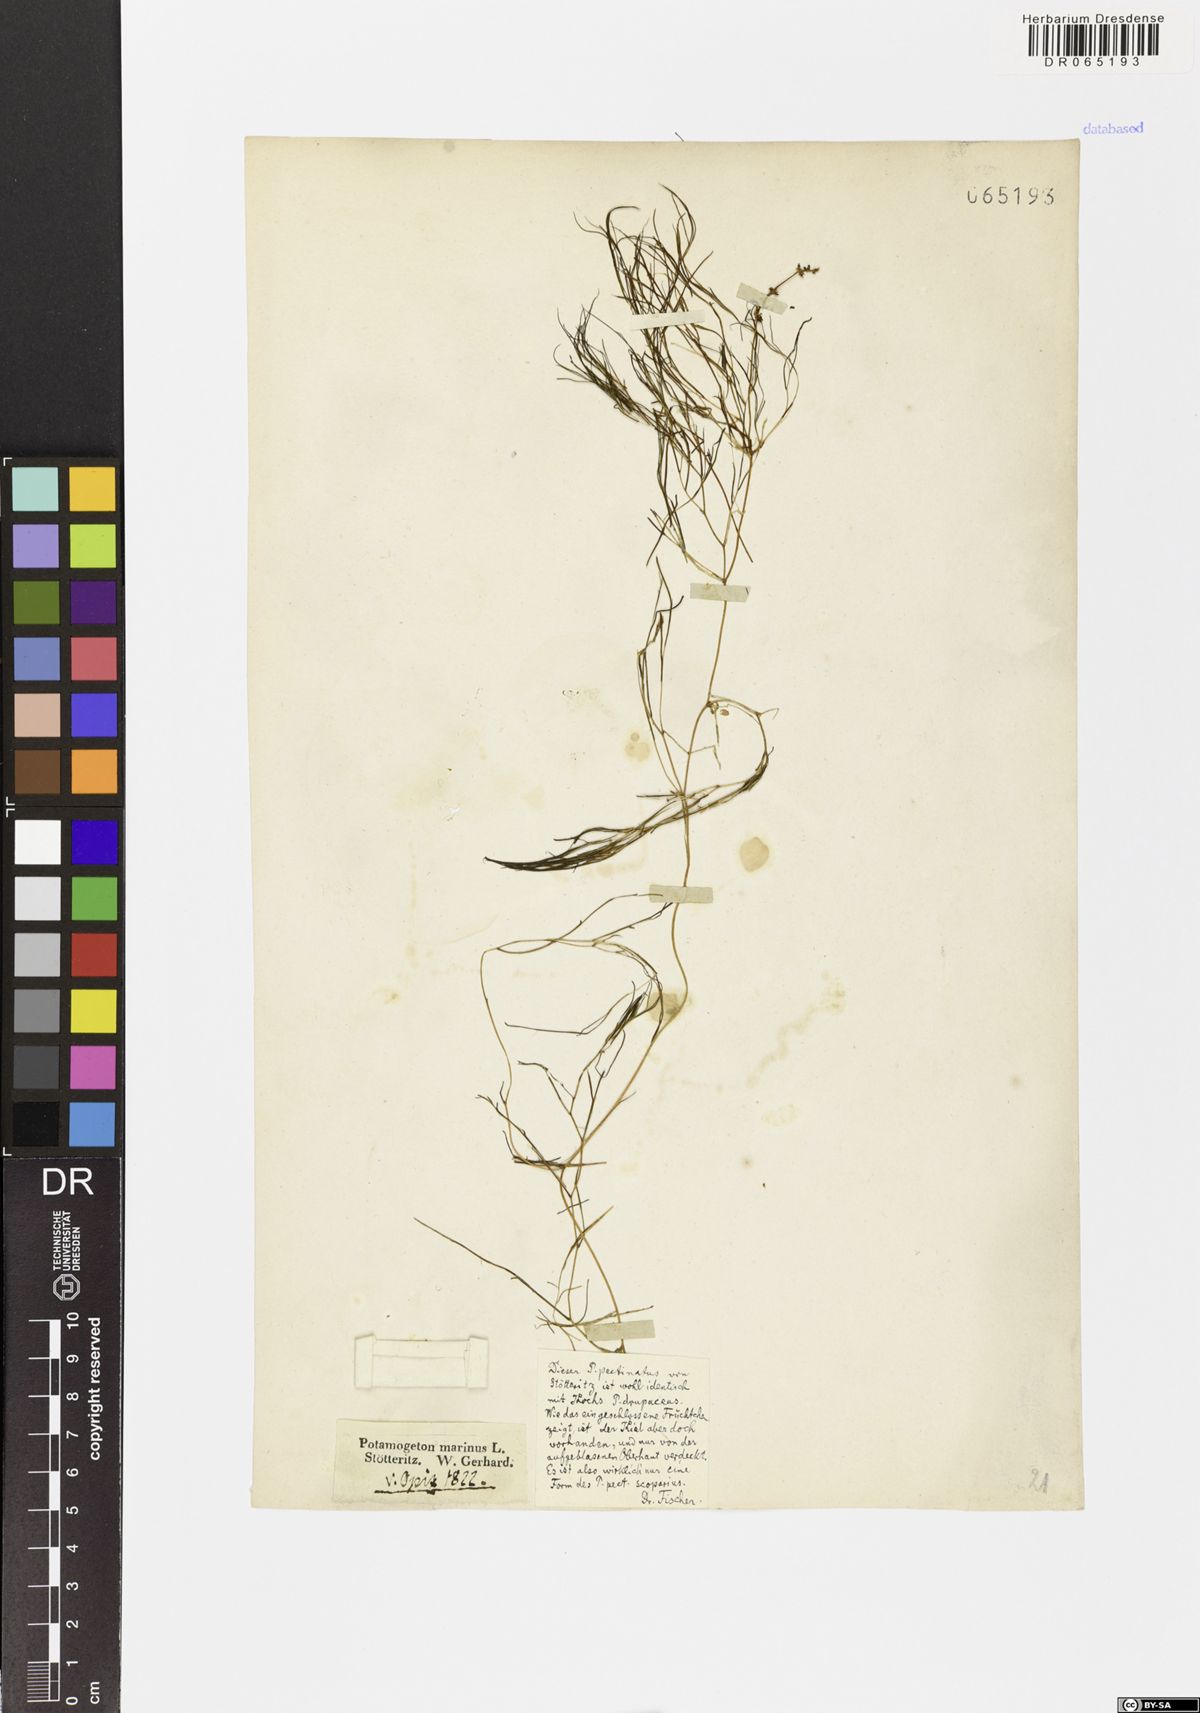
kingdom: Plantae
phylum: Tracheophyta
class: Liliopsida
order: Alismatales
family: Potamogetonaceae
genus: Stuckenia
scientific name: Stuckenia pectinata
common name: Sago pondweed
